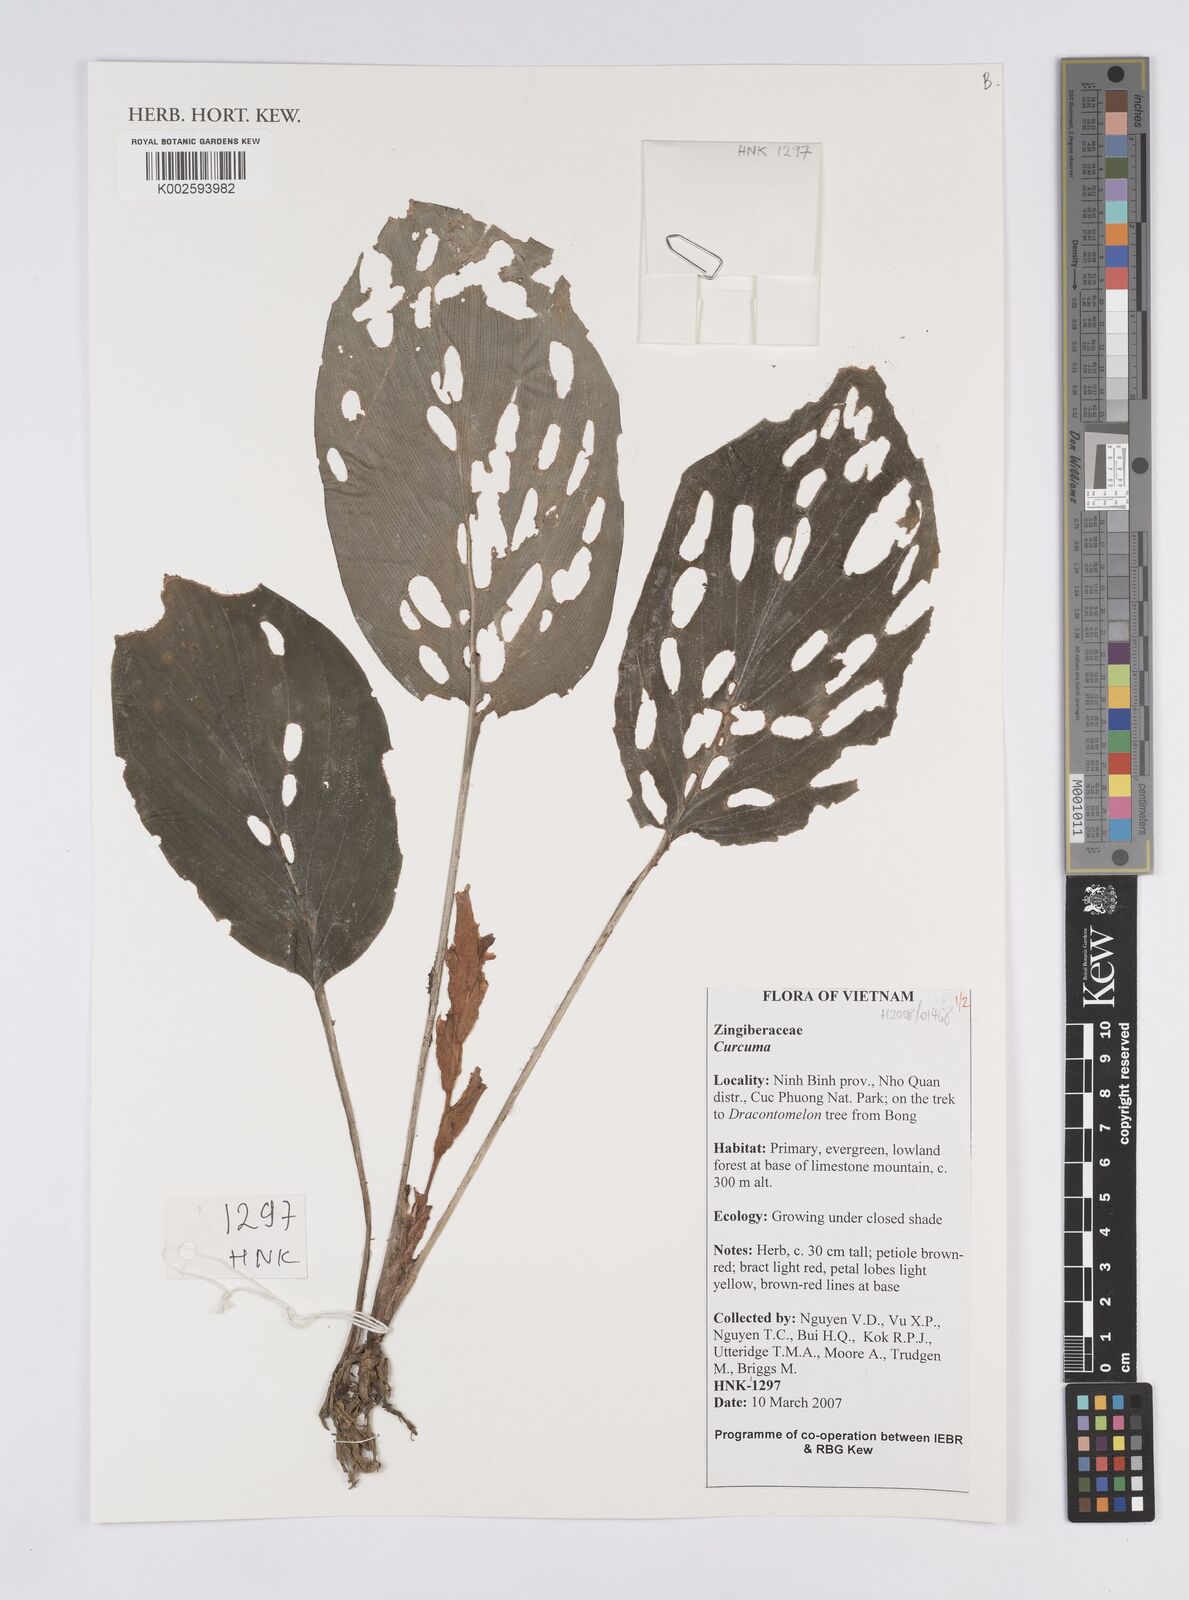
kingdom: Plantae
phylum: Tracheophyta
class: Liliopsida
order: Zingiberales
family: Zingiberaceae
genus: Curcuma
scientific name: Curcuma
